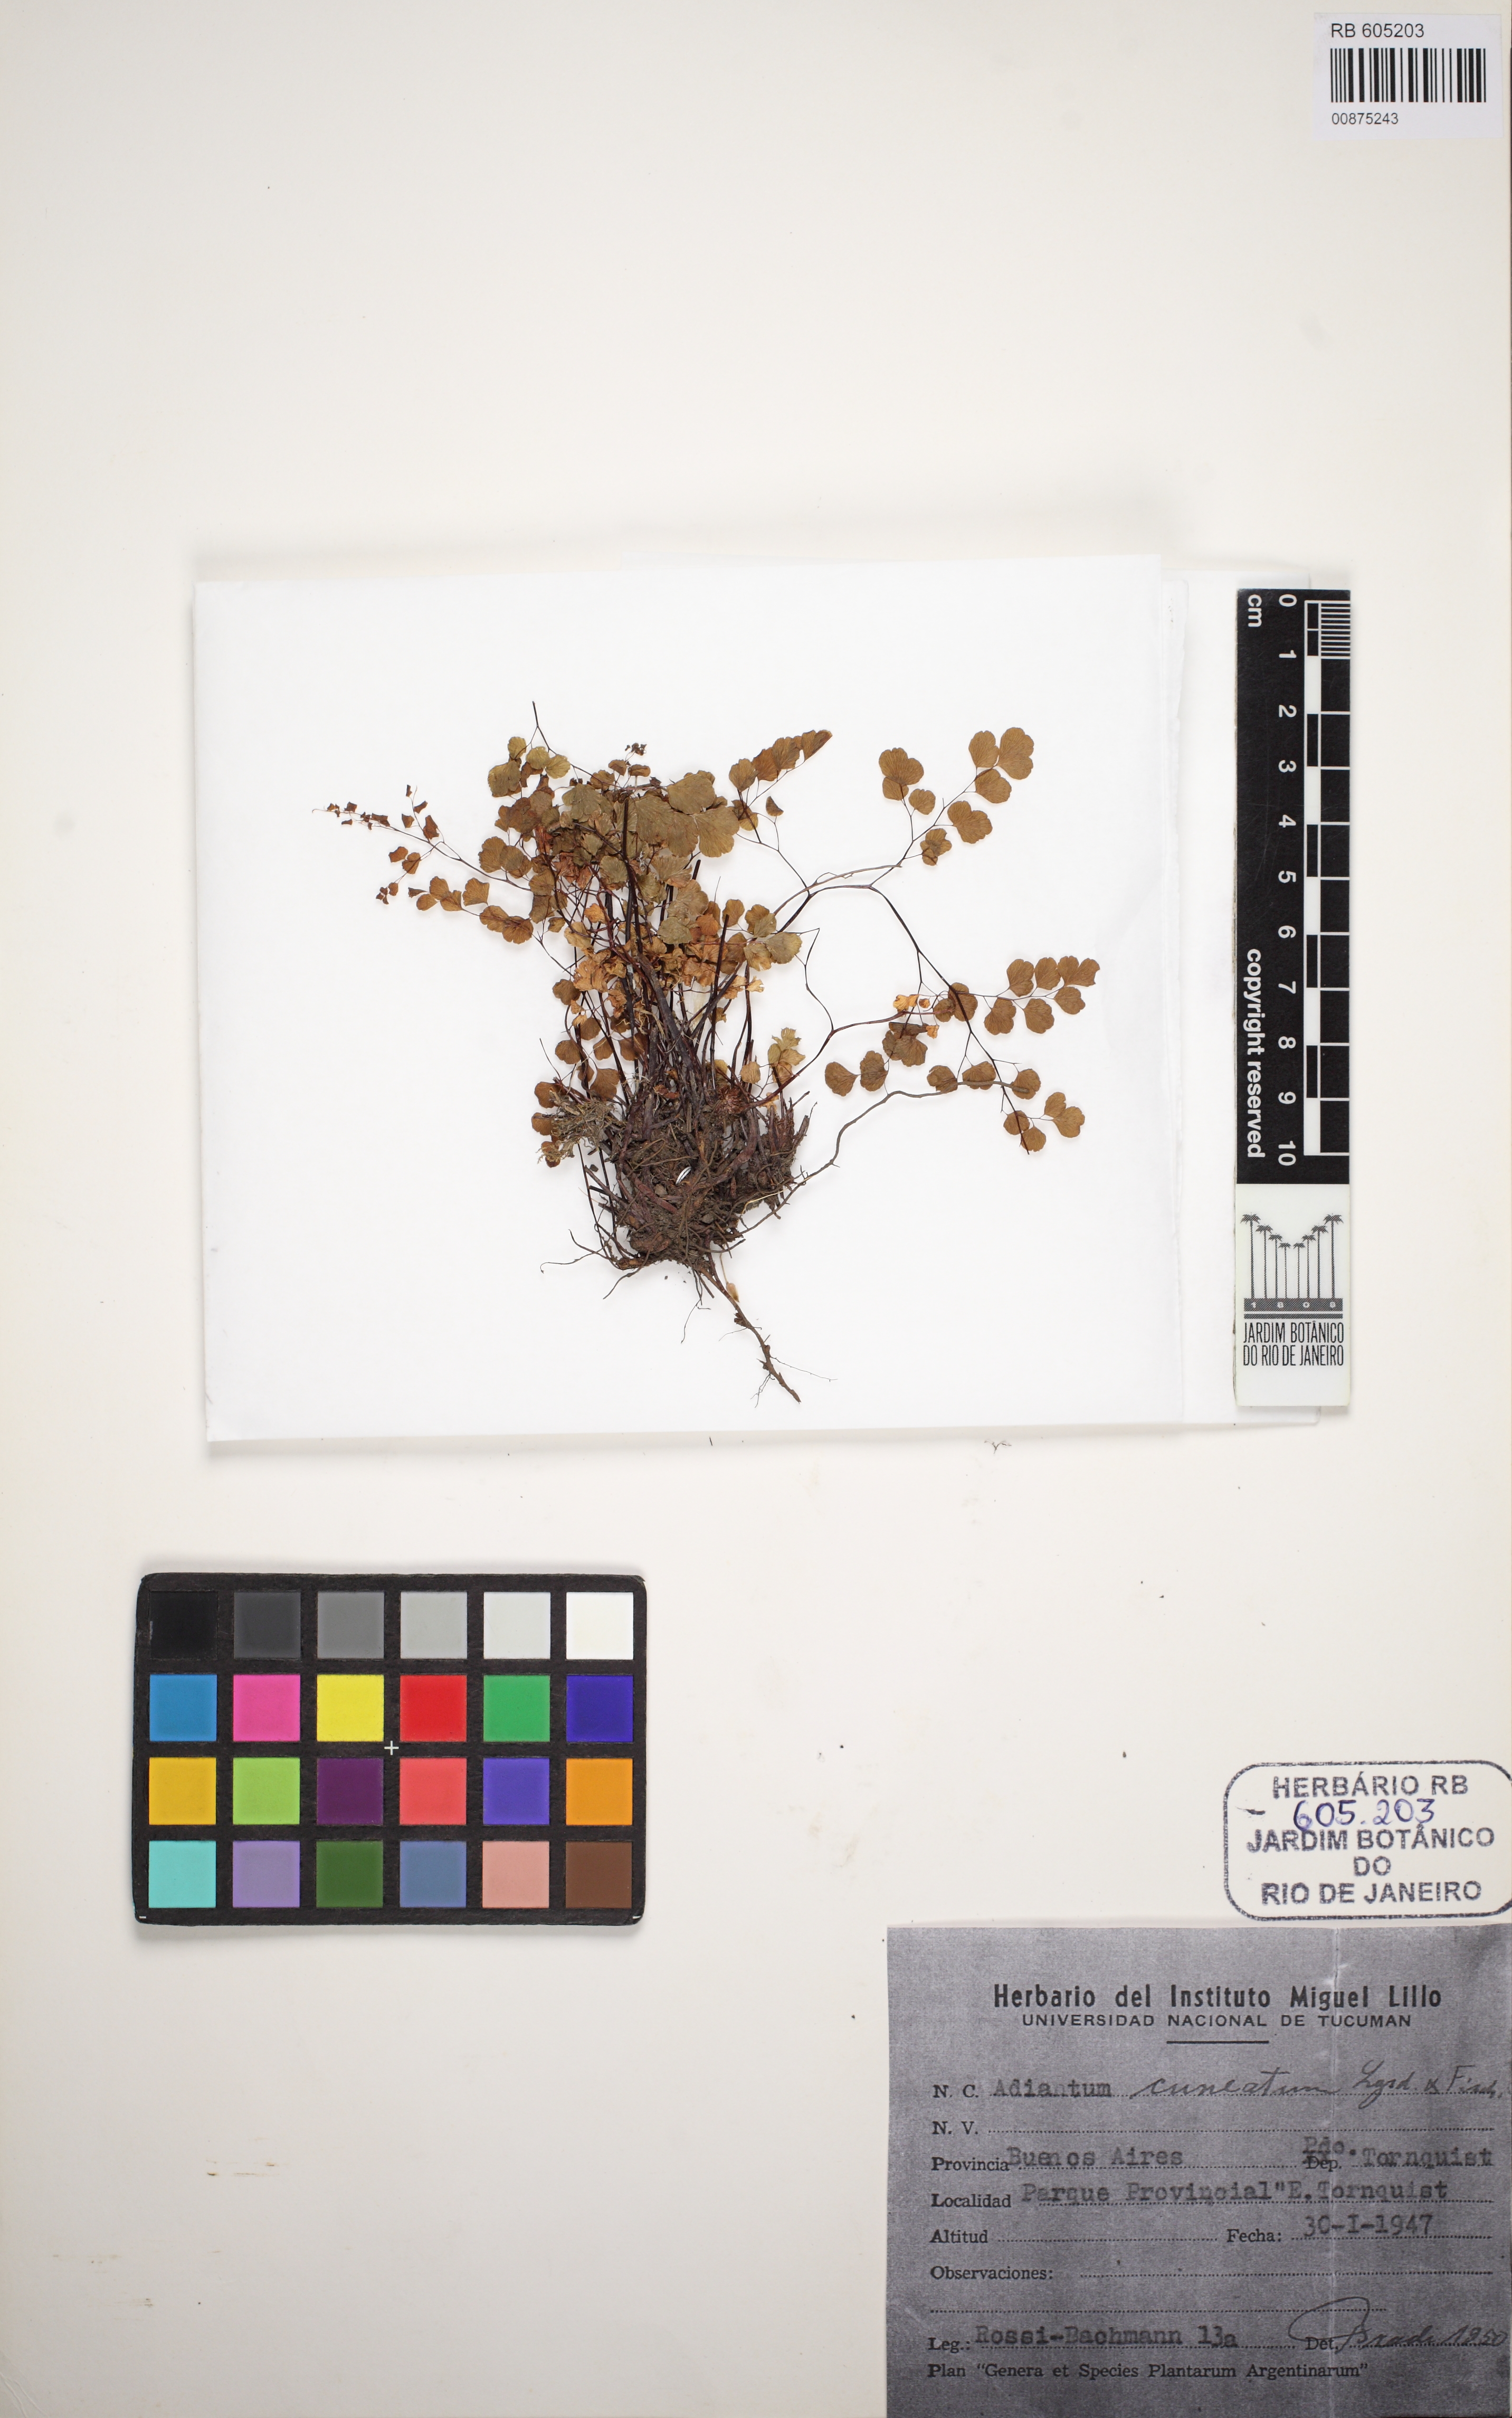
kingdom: Plantae
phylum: Tracheophyta
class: Polypodiopsida
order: Polypodiales
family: Lindsaeaceae
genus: Lindsaea
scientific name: Lindsaea trichomanoides
